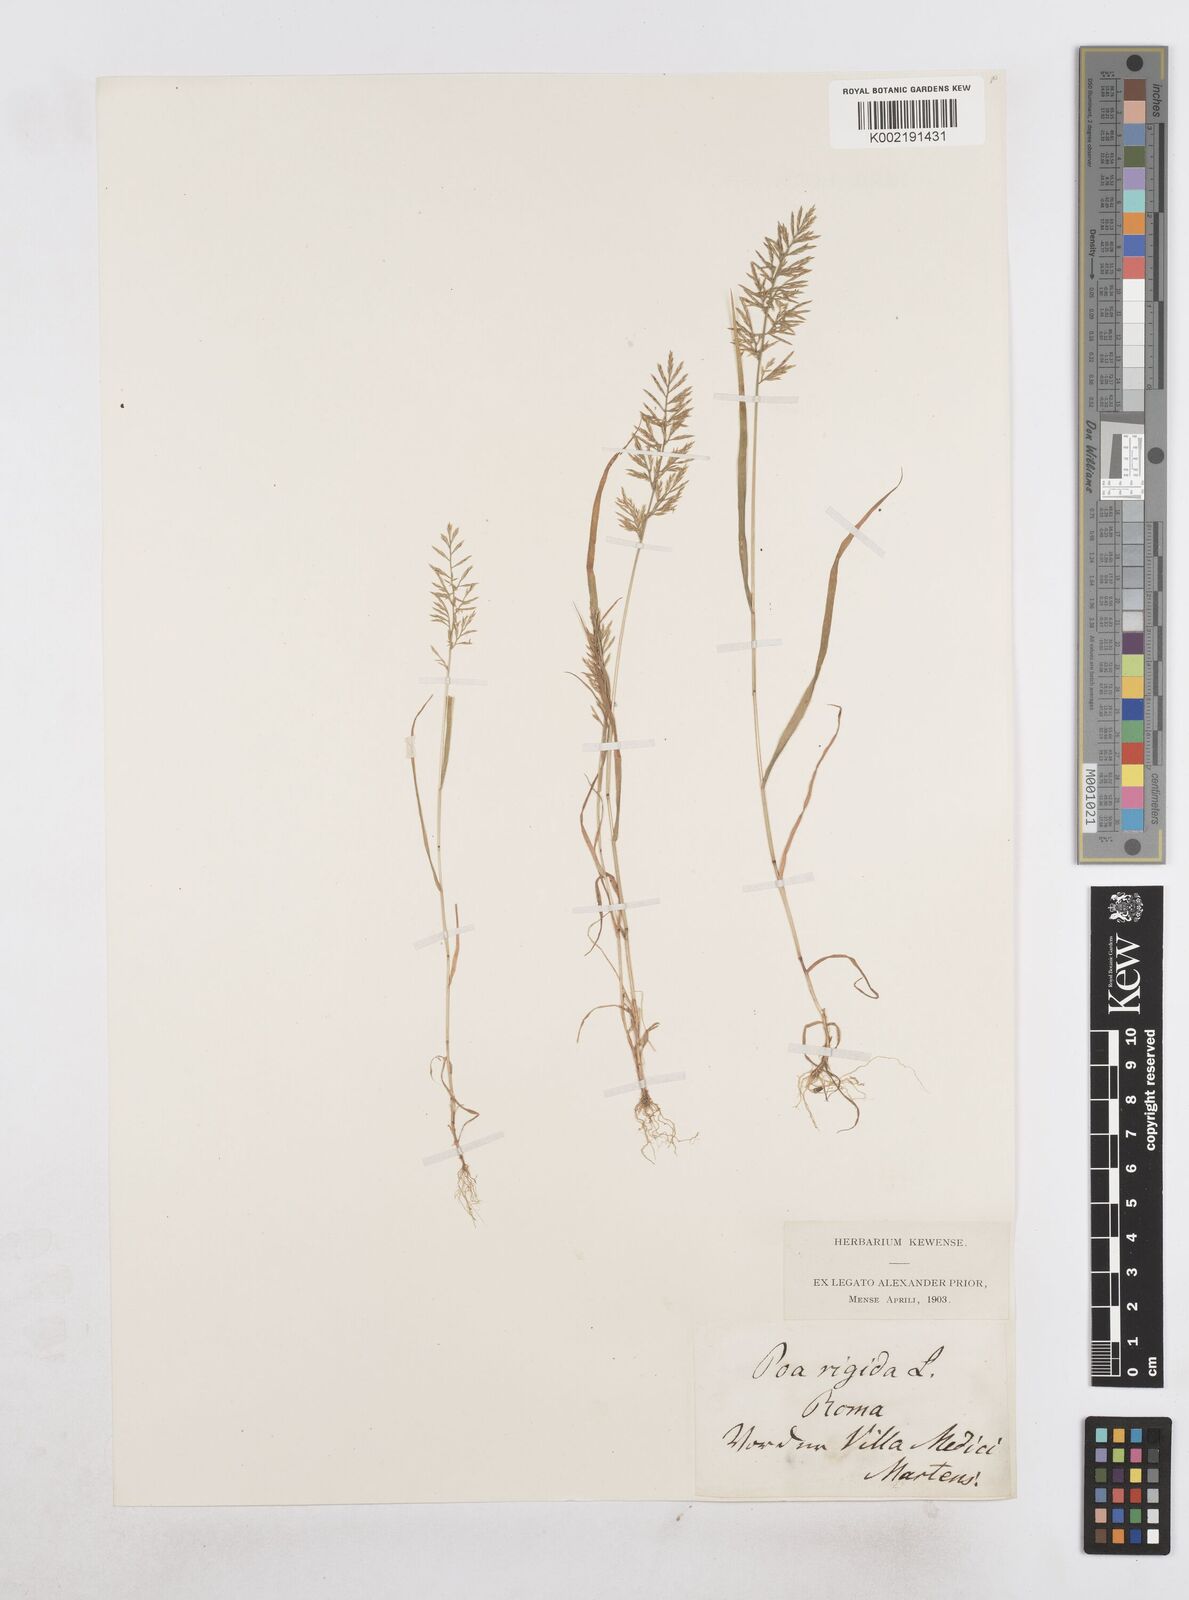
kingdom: Plantae
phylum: Tracheophyta
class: Liliopsida
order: Poales
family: Poaceae
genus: Catapodium
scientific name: Catapodium rigidum
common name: Fern-grass
